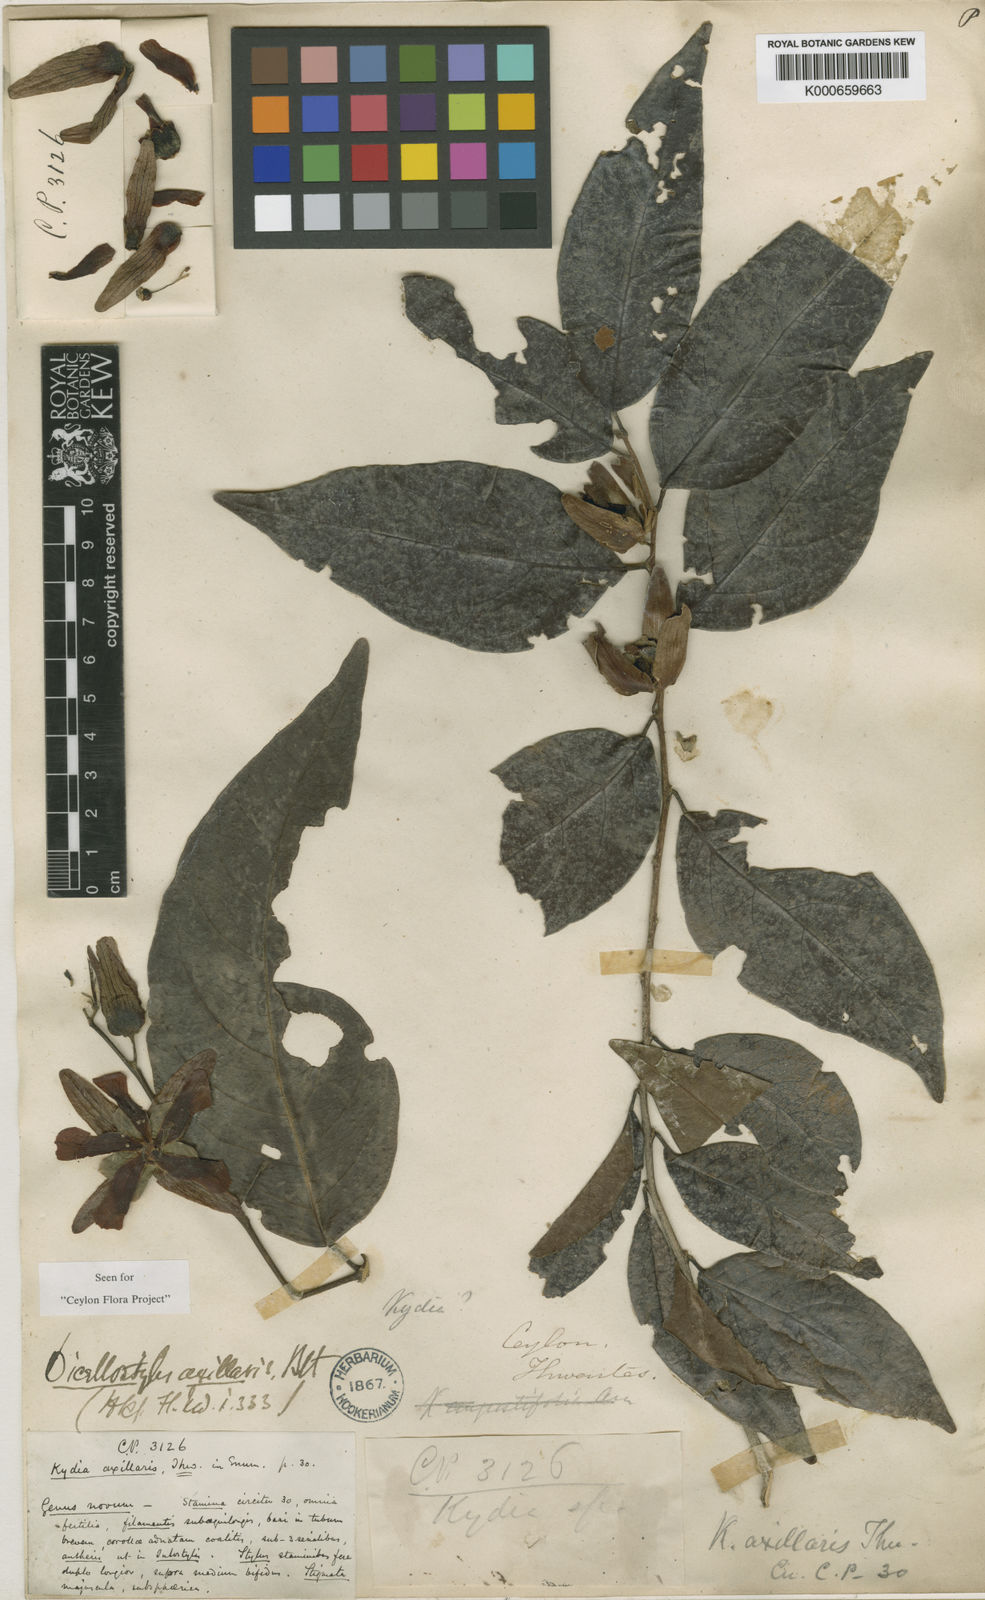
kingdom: Plantae
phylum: Tracheophyta
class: Magnoliopsida
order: Malvales
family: Malvaceae
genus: Dicellostyles
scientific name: Dicellostyles
